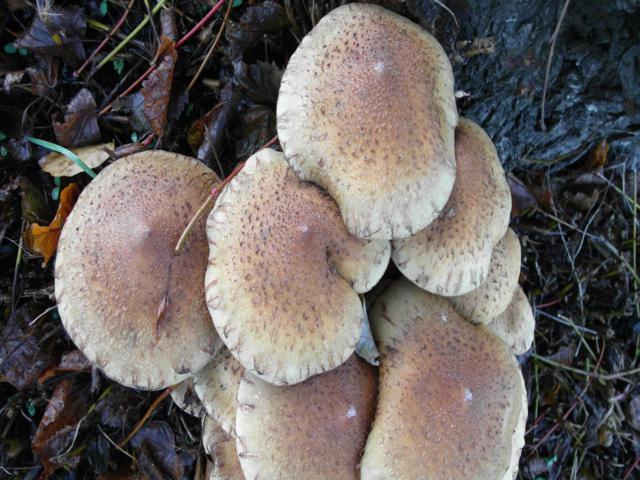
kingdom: Fungi
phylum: Basidiomycota
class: Agaricomycetes
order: Agaricales
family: Strophariaceae
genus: Pholiota
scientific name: Pholiota squarrosa
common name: krumskællet skælhat
